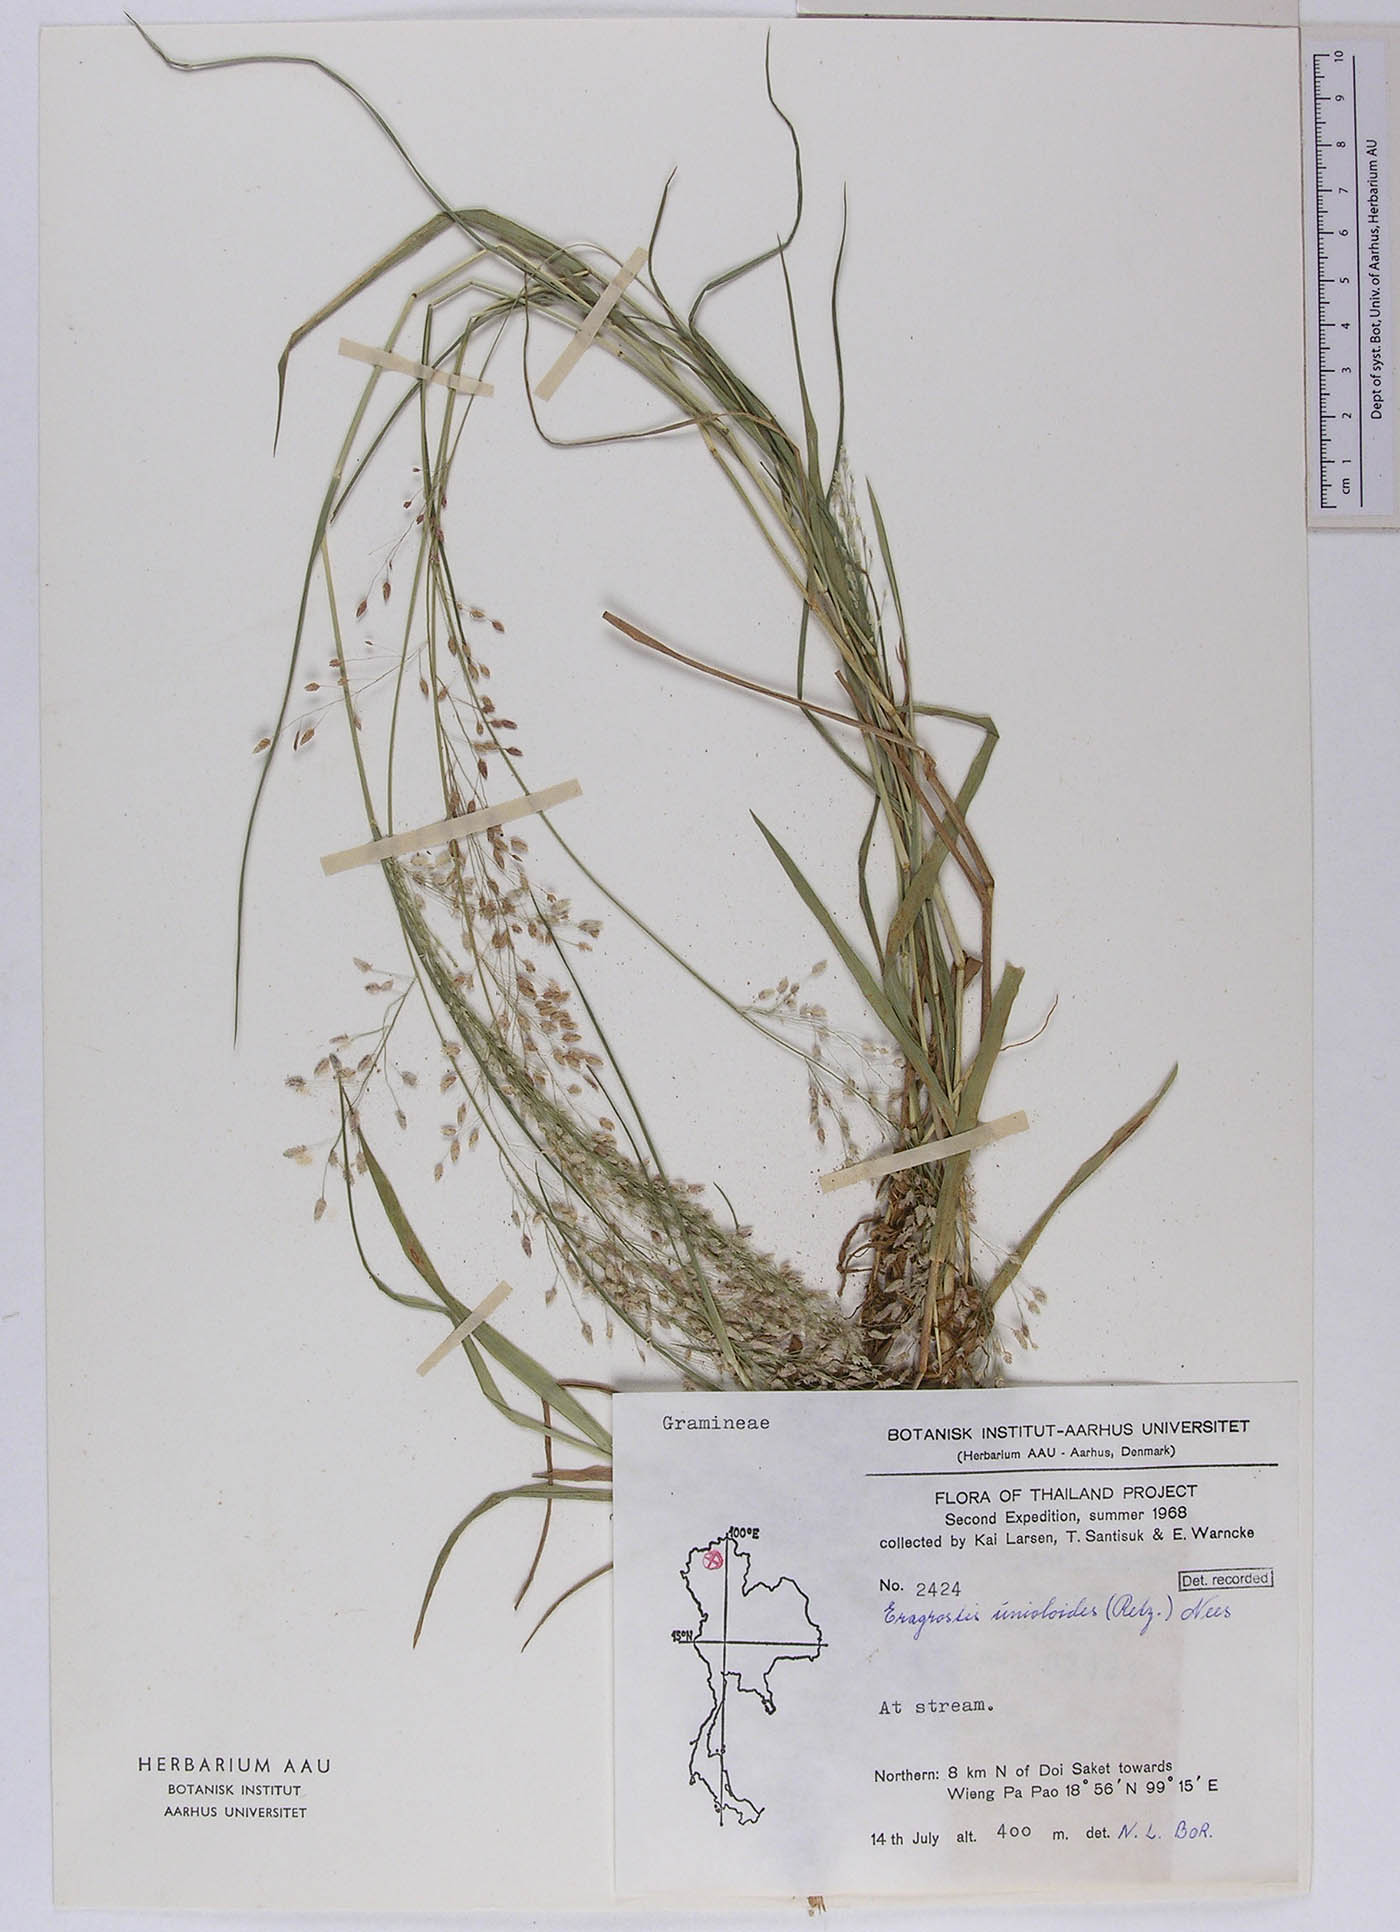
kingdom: Plantae
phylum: Tracheophyta
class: Liliopsida
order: Poales
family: Poaceae
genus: Eragrostis
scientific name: Eragrostis unioloides
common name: Chinese lovegrass
